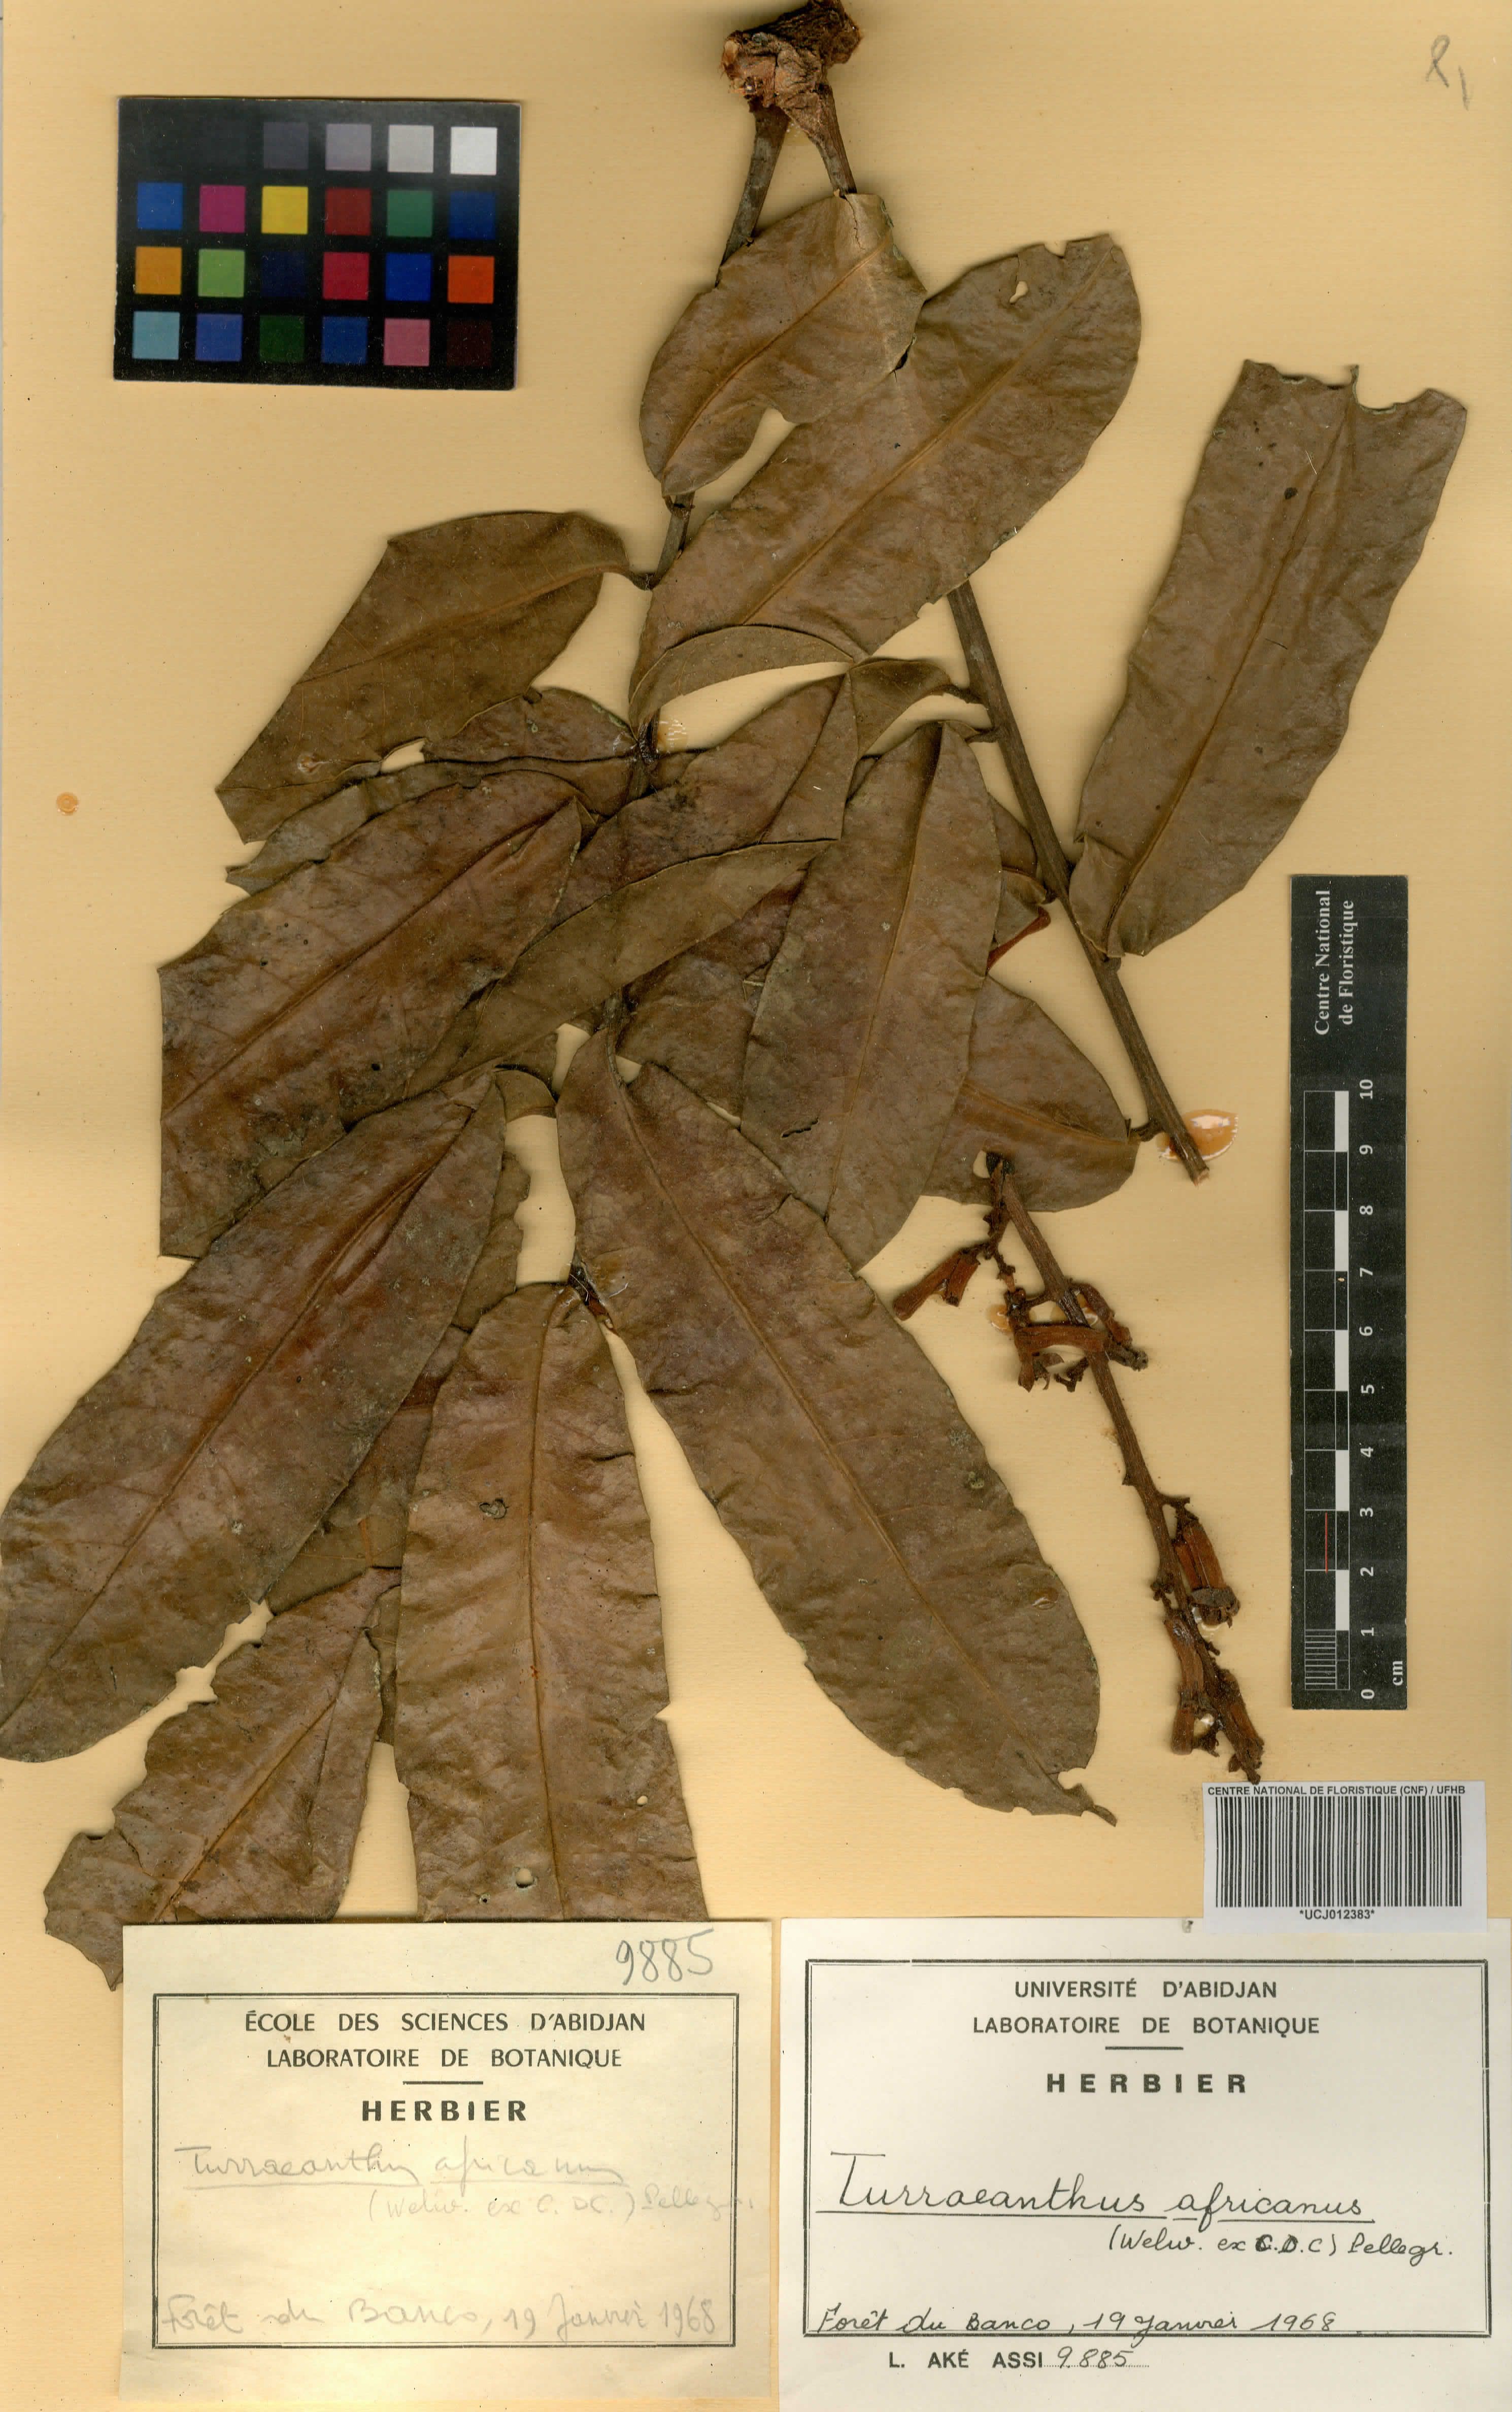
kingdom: Plantae
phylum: Tracheophyta
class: Magnoliopsida
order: Sapindales
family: Meliaceae
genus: Turraeanthus
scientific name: Turraeanthus africanus
